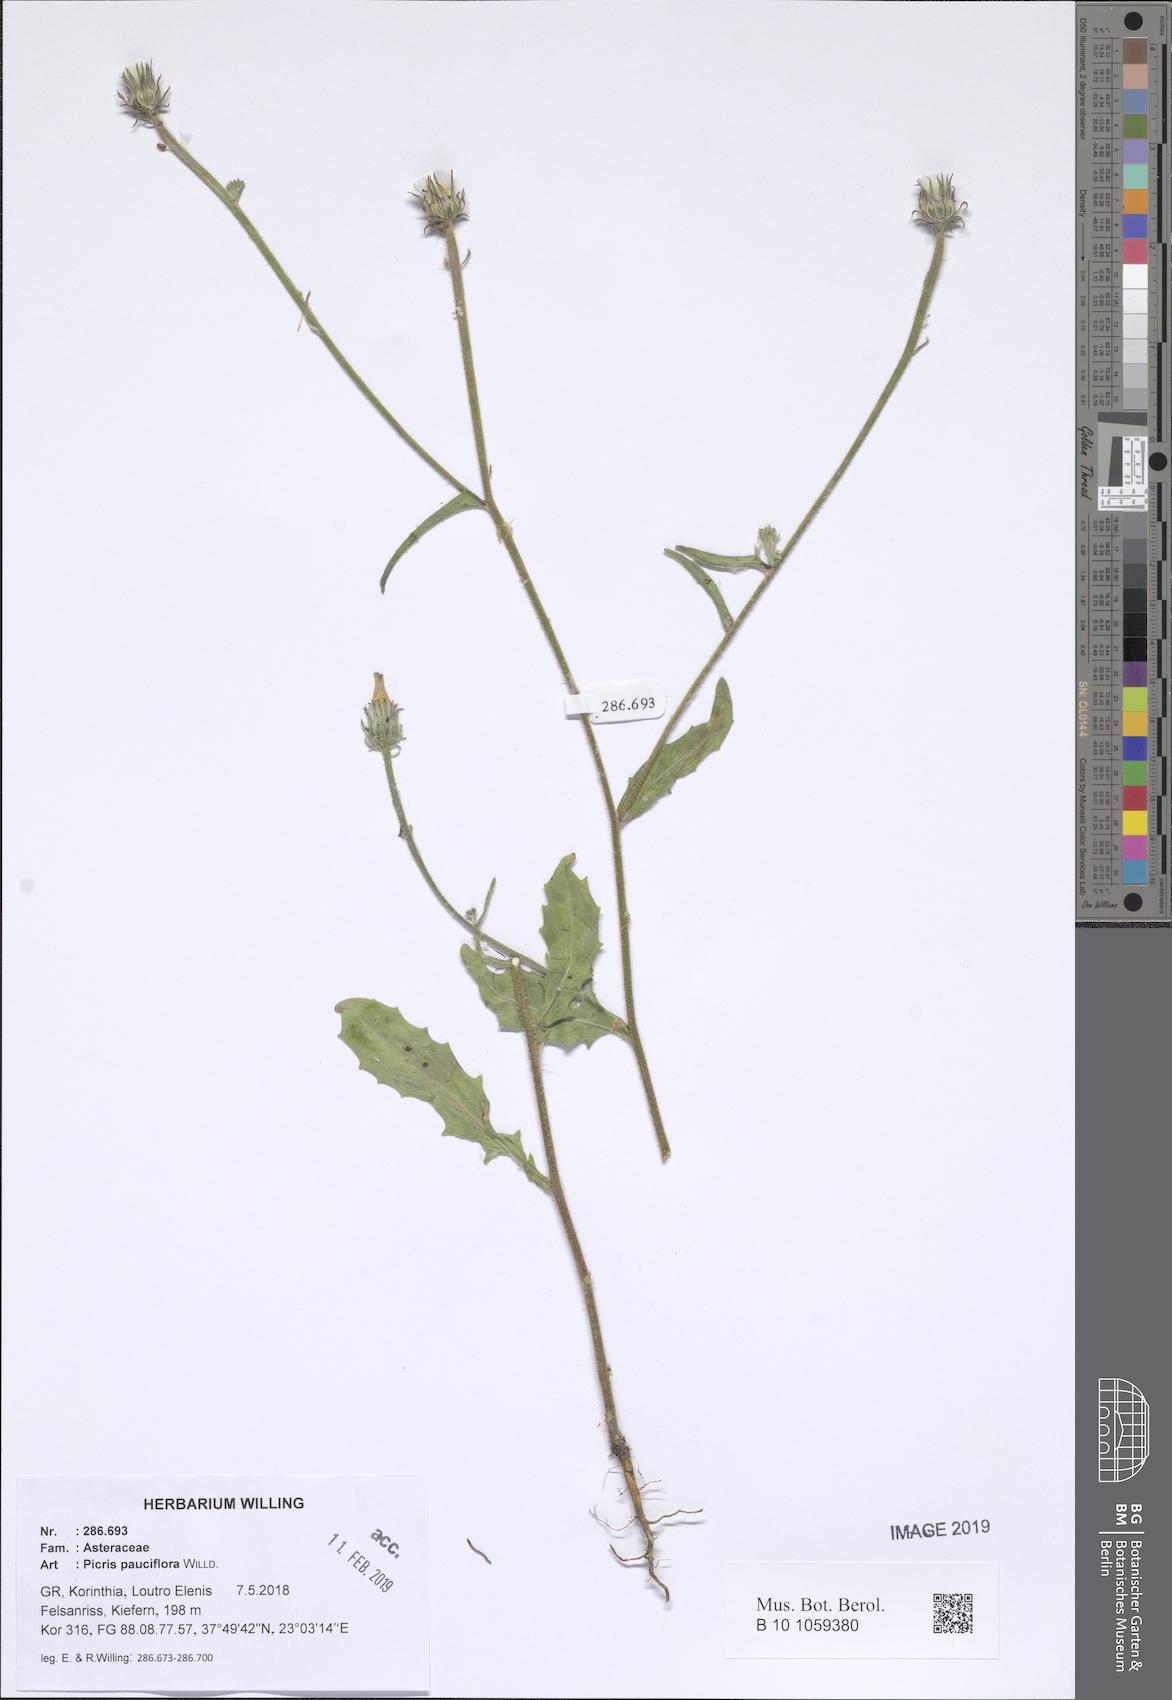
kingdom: Plantae
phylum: Tracheophyta
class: Magnoliopsida
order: Asterales
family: Asteraceae
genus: Picris
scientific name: Picris pauciflora
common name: Smallflower oxtongue
